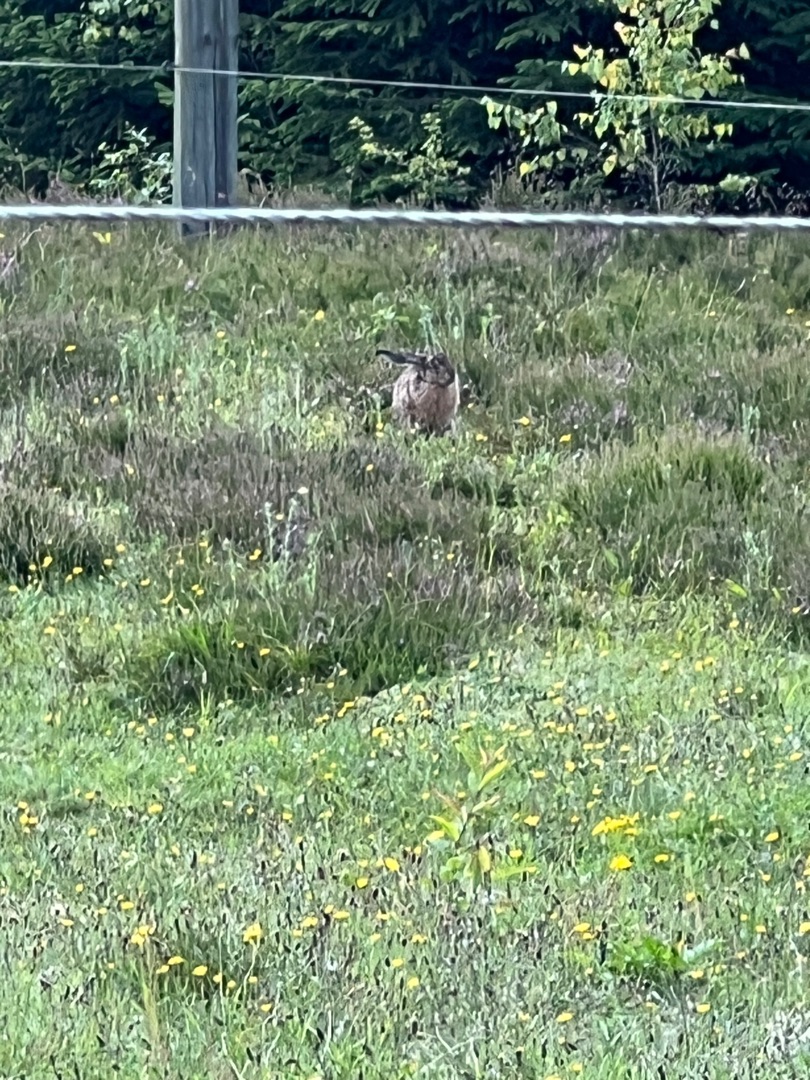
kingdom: Animalia
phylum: Chordata
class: Mammalia
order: Lagomorpha
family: Leporidae
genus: Lepus
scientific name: Lepus europaeus
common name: Hare
